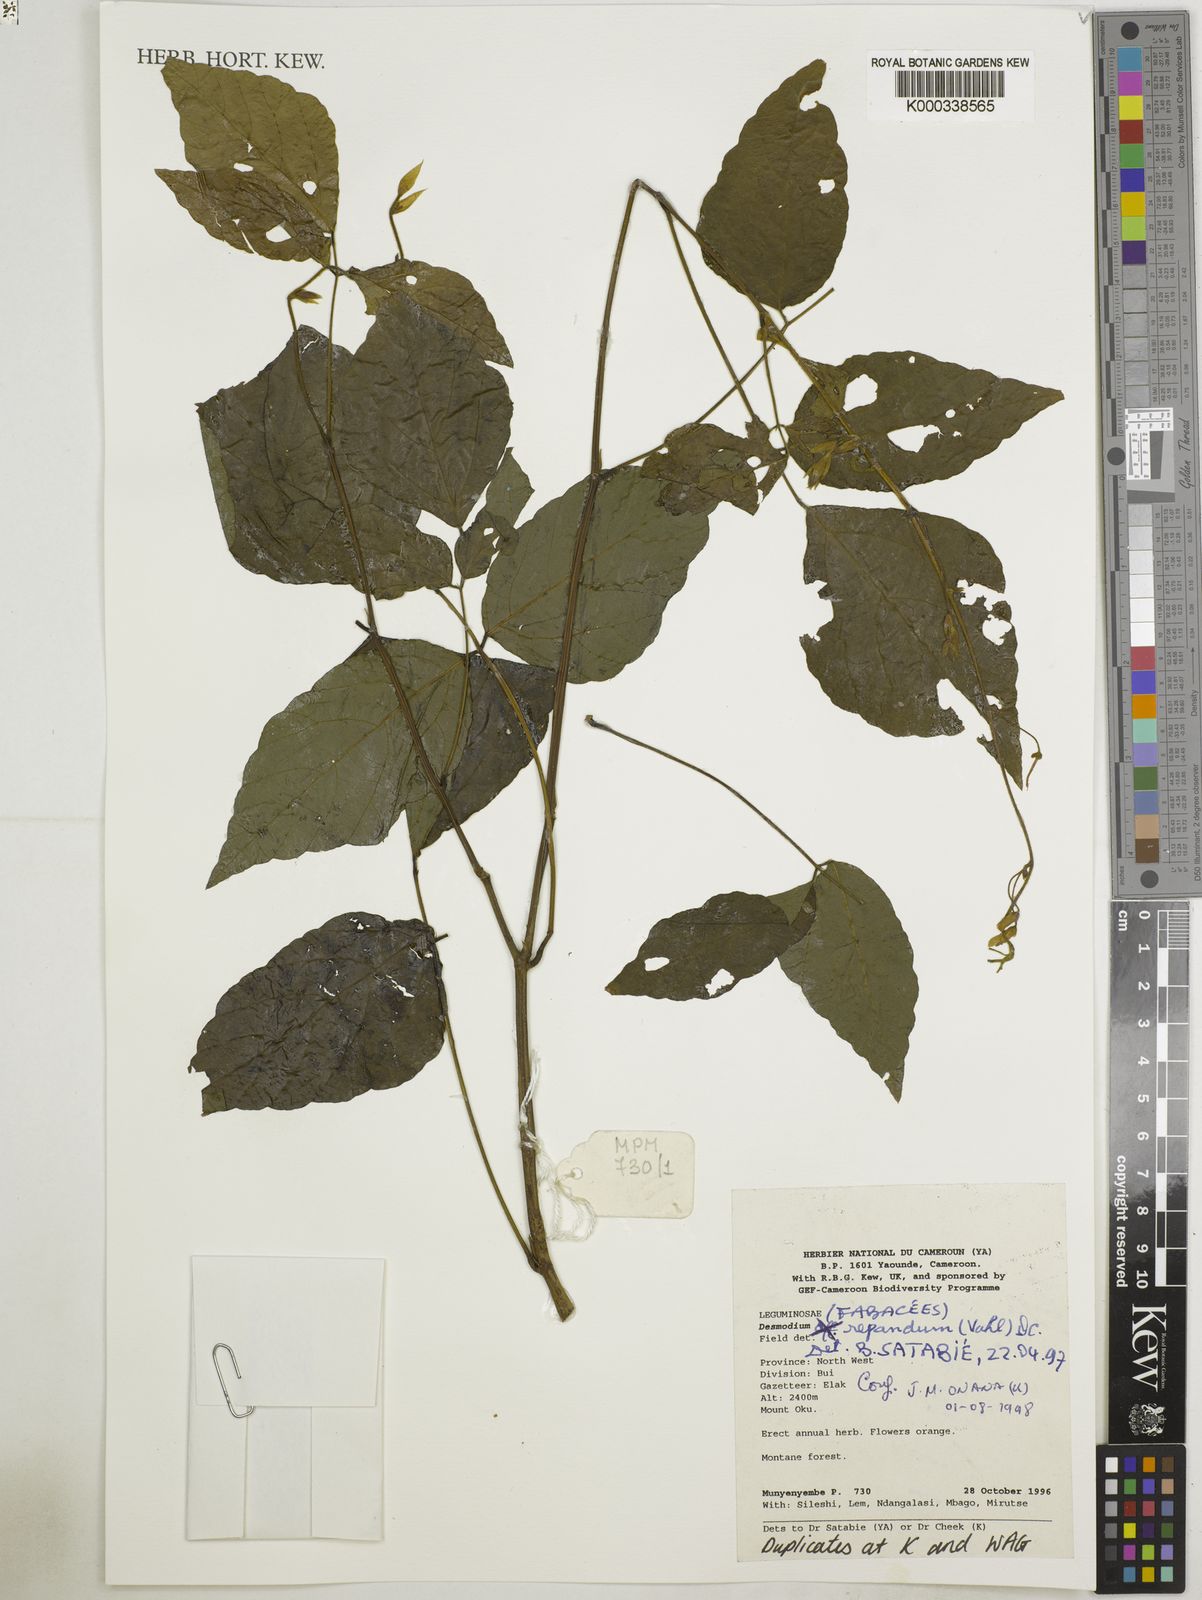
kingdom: Plantae
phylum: Tracheophyta
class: Magnoliopsida
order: Fabales
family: Fabaceae
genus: Hylodesmum
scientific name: Hylodesmum repandum
